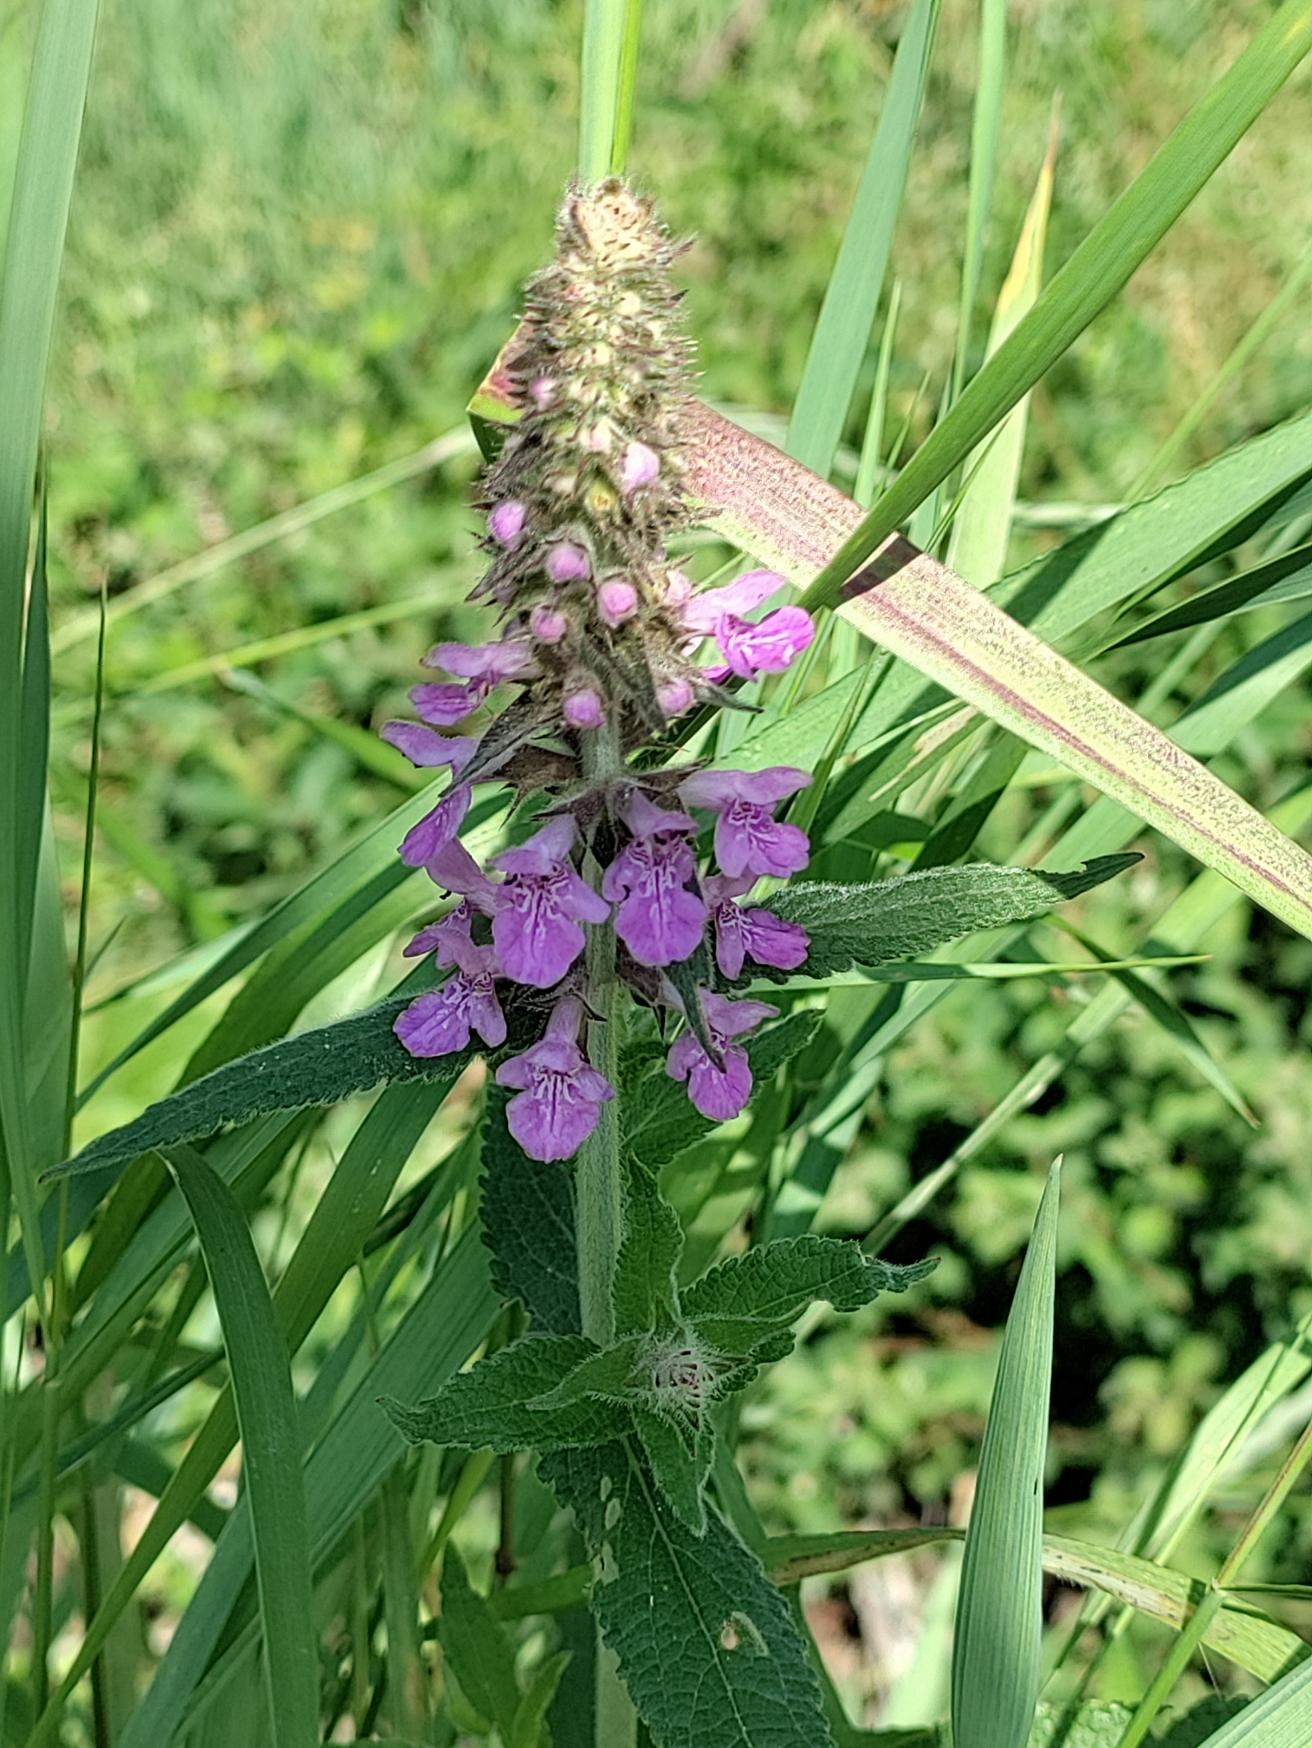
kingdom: Plantae
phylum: Tracheophyta
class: Magnoliopsida
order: Lamiales
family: Lamiaceae
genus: Stachys
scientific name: Stachys palustris
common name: Kær-galtetand
